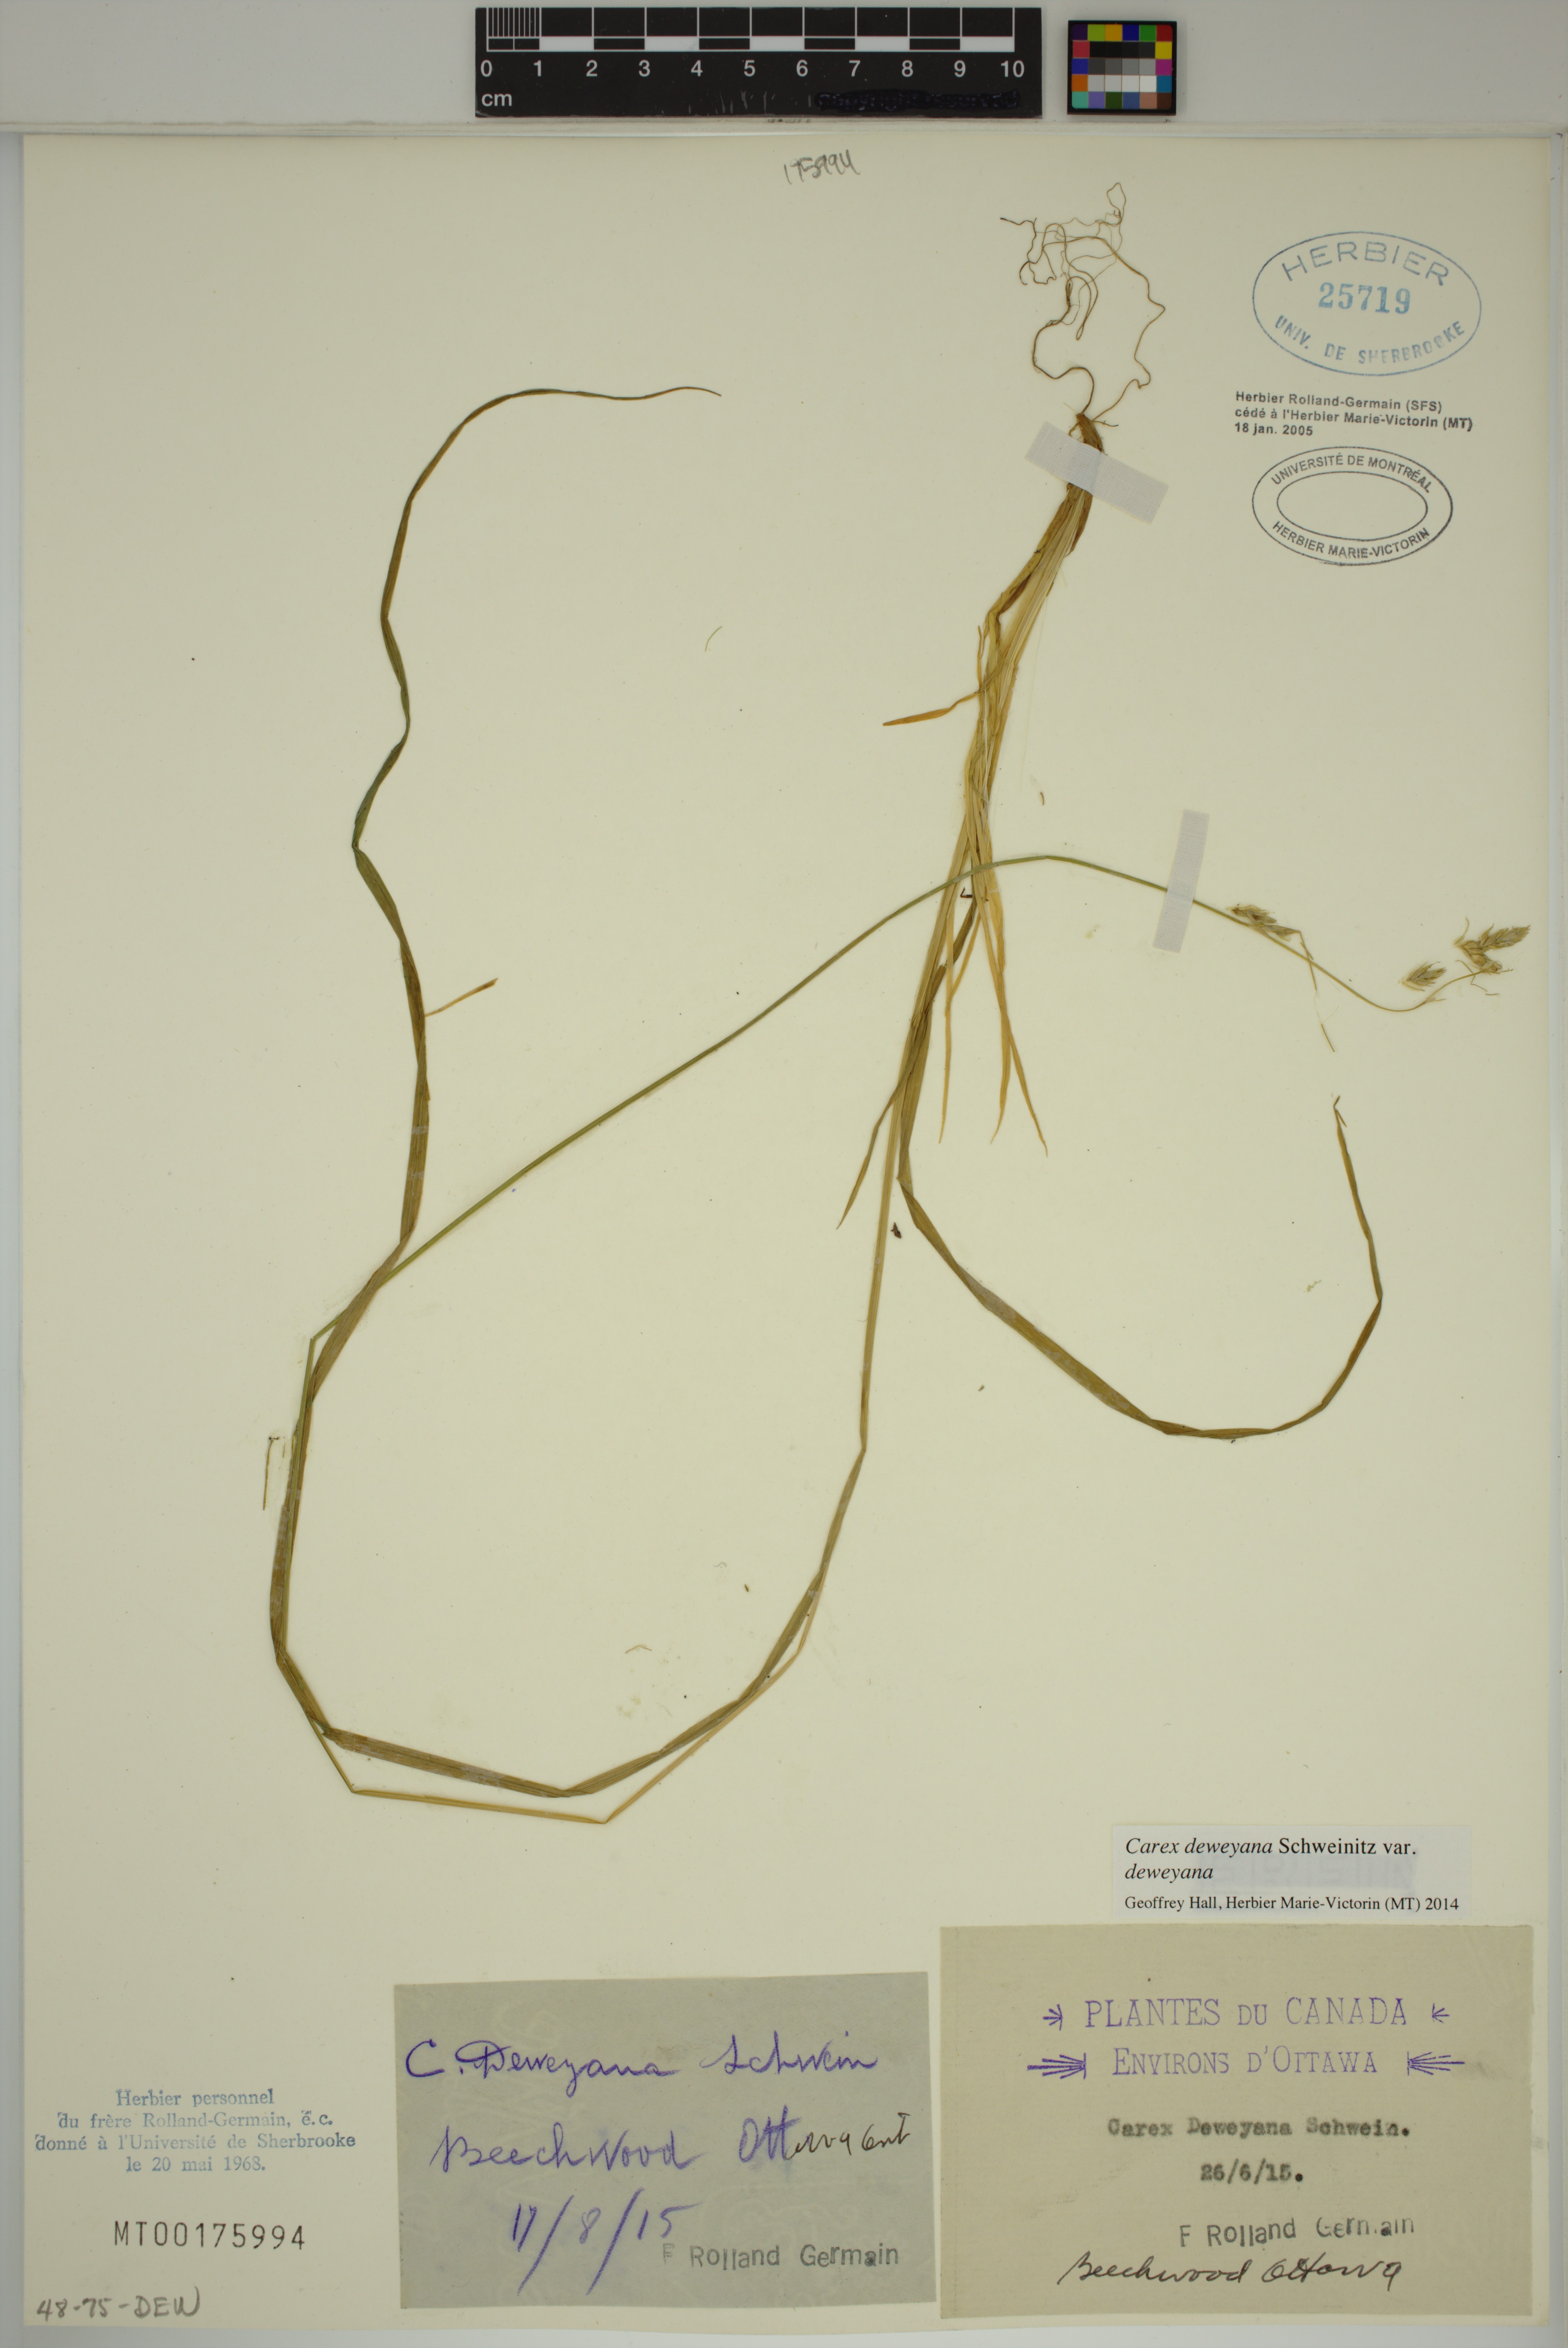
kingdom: Plantae
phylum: Tracheophyta
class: Liliopsida
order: Poales
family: Cyperaceae
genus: Carex
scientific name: Carex deweyana
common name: Dewey's sedge
